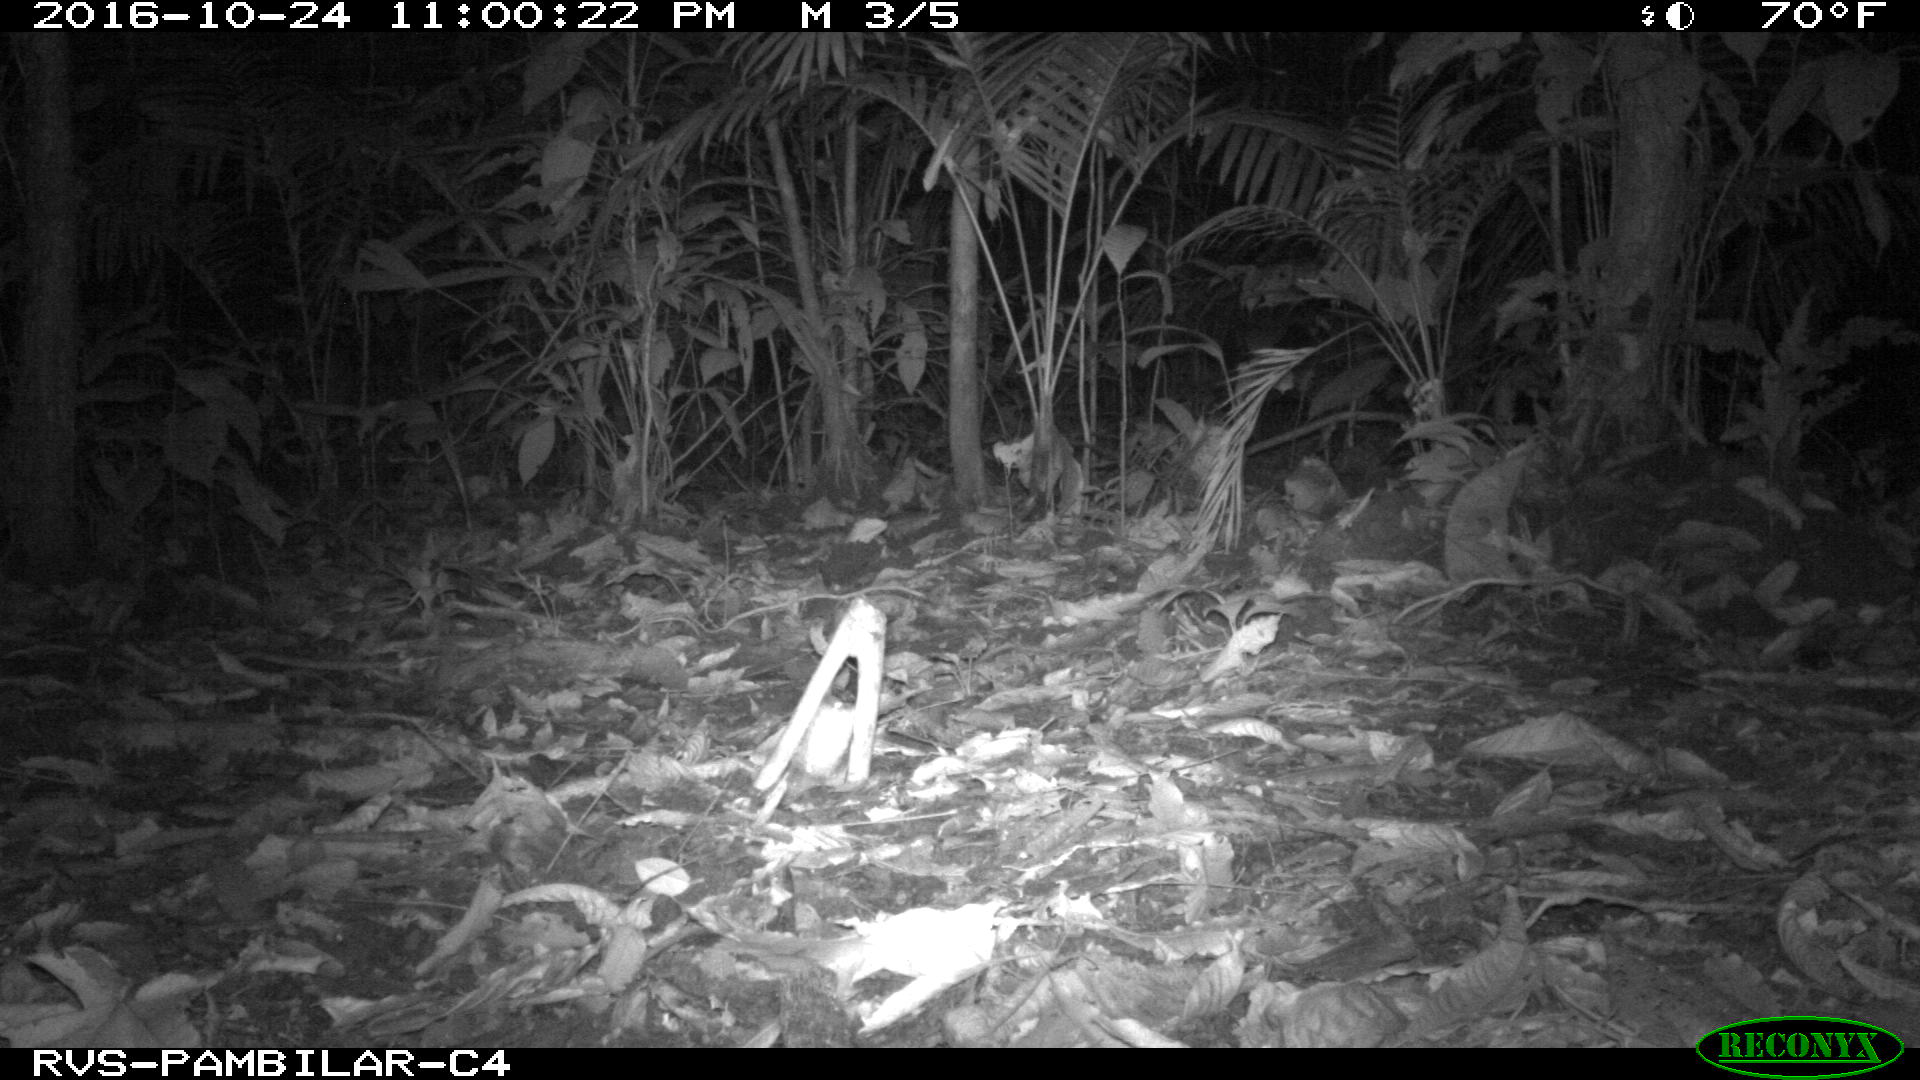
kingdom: Animalia
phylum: Chordata
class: Mammalia
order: Cingulata
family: Dasypodidae
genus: Dasypus
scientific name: Dasypus novemcinctus
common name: Nine-banded armadillo
